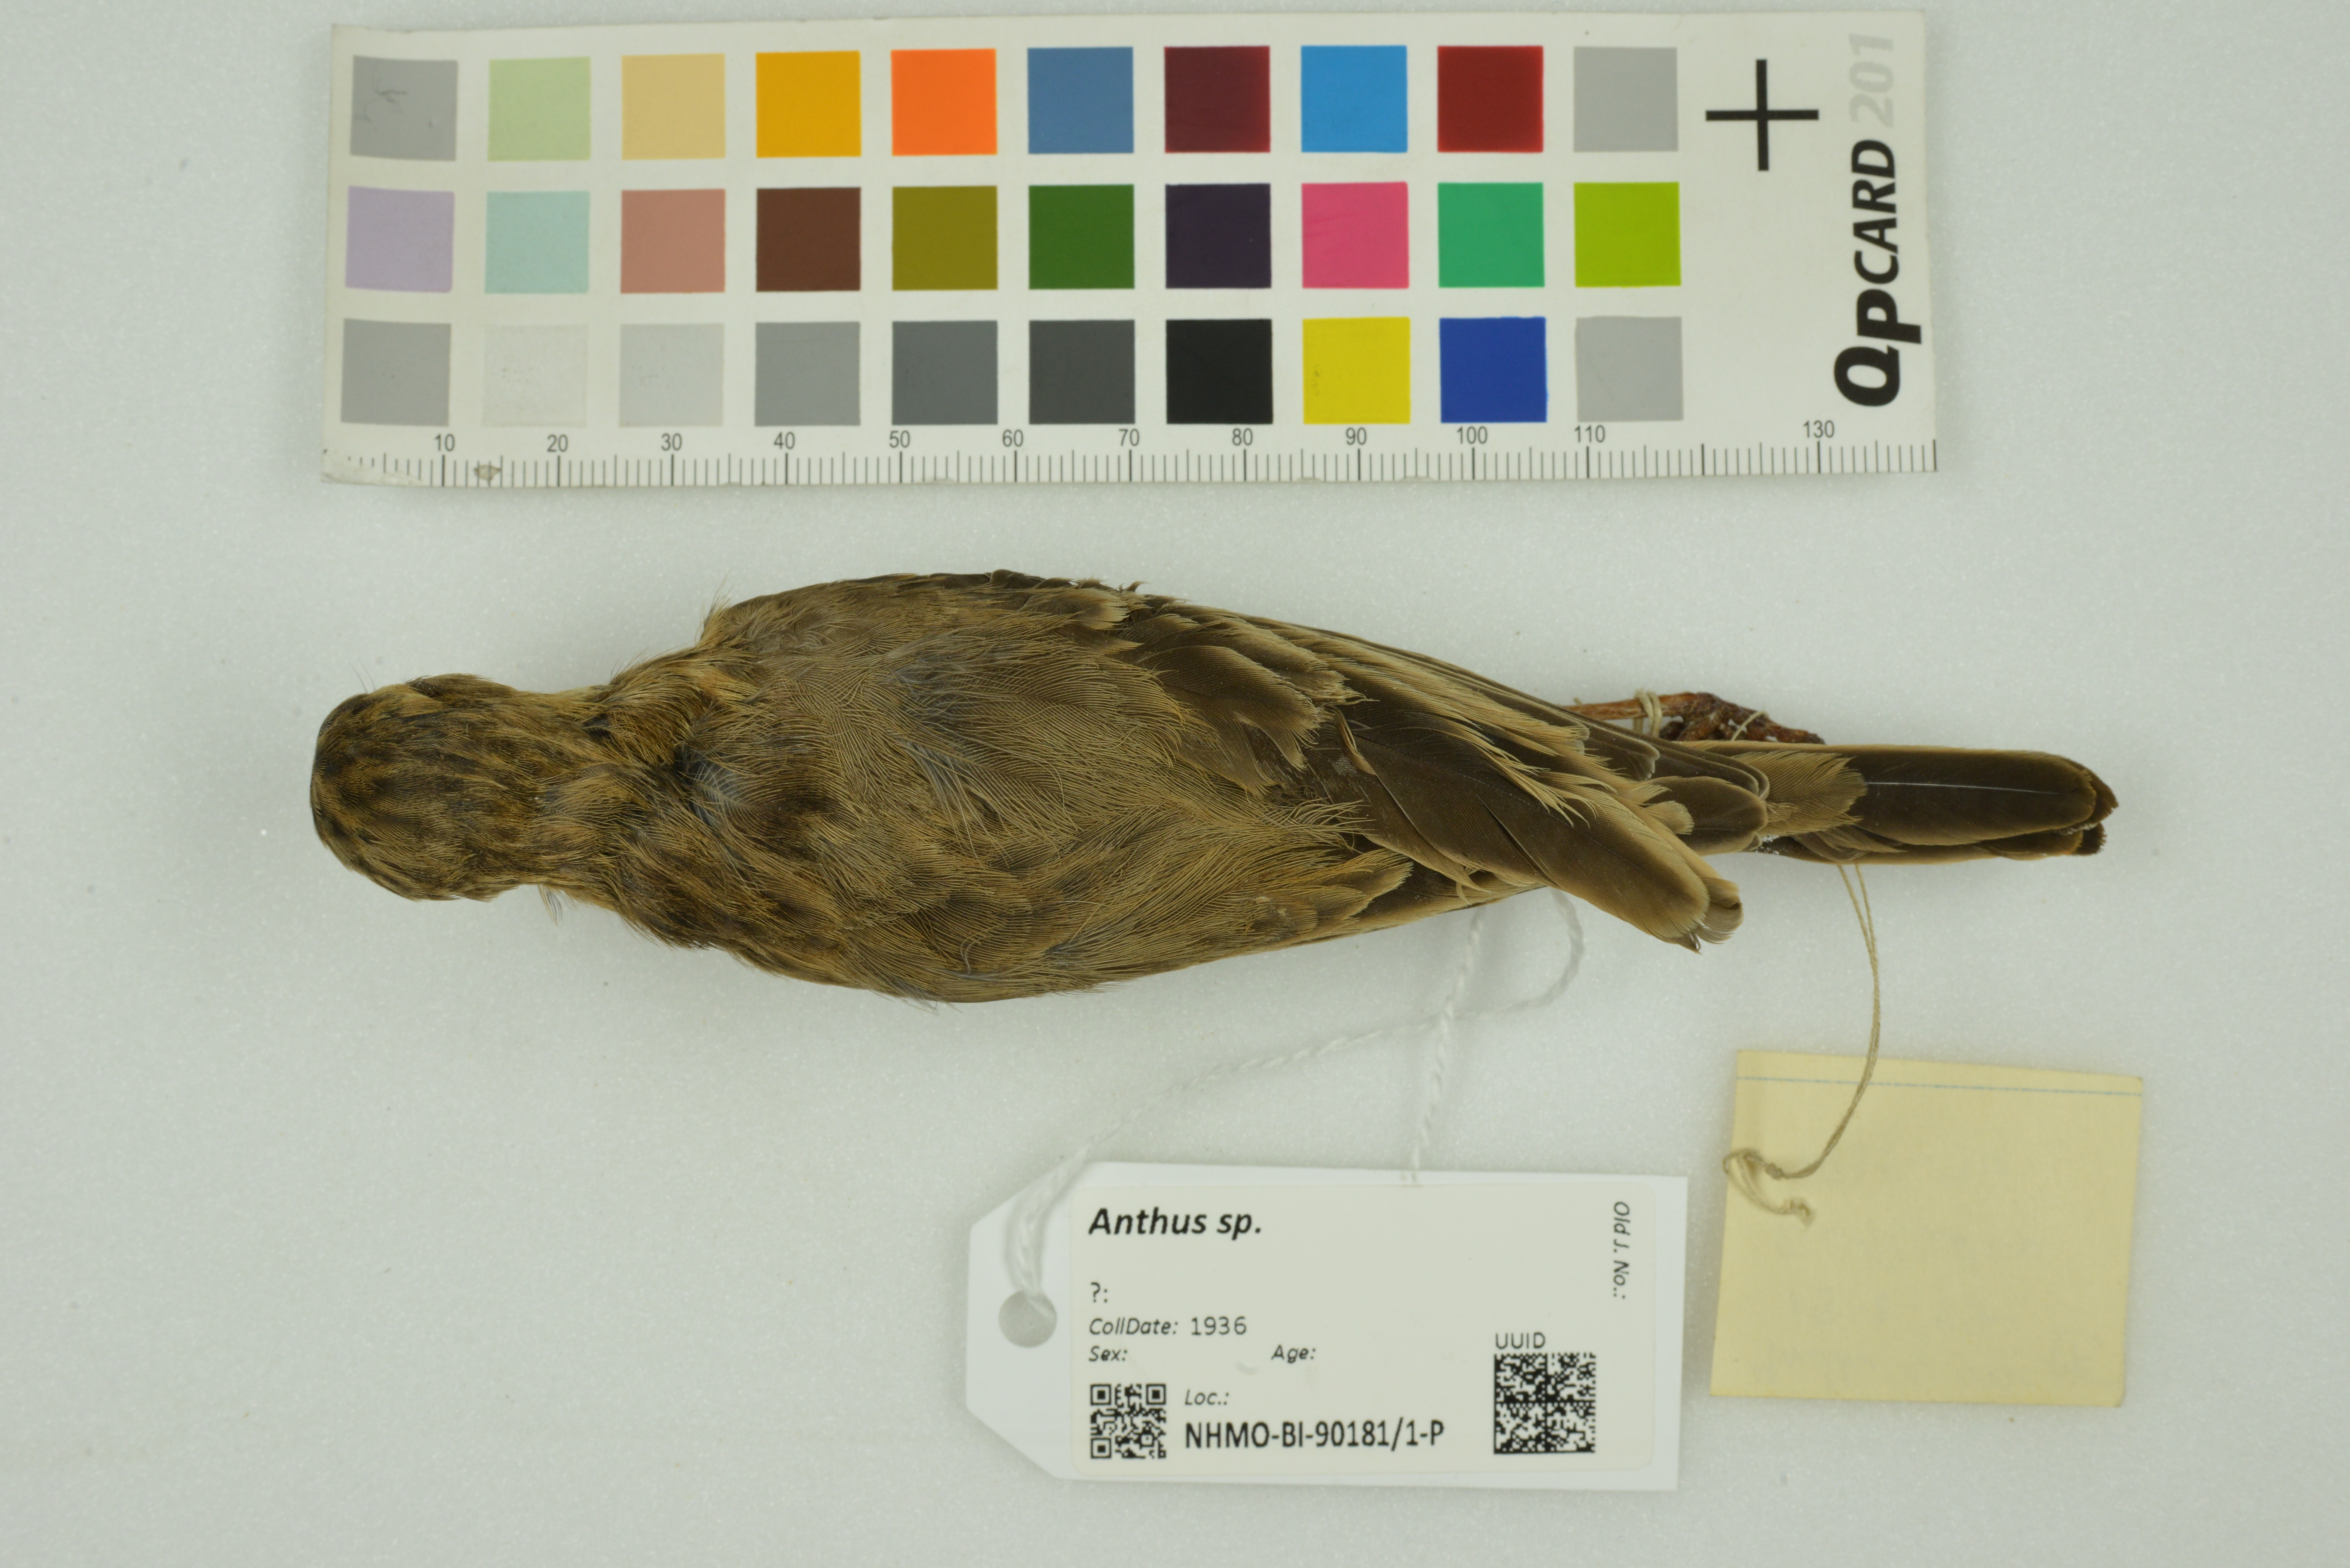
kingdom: Animalia
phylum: Chordata
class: Aves
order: Passeriformes
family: Motacillidae
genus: Anthus
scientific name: Anthus
